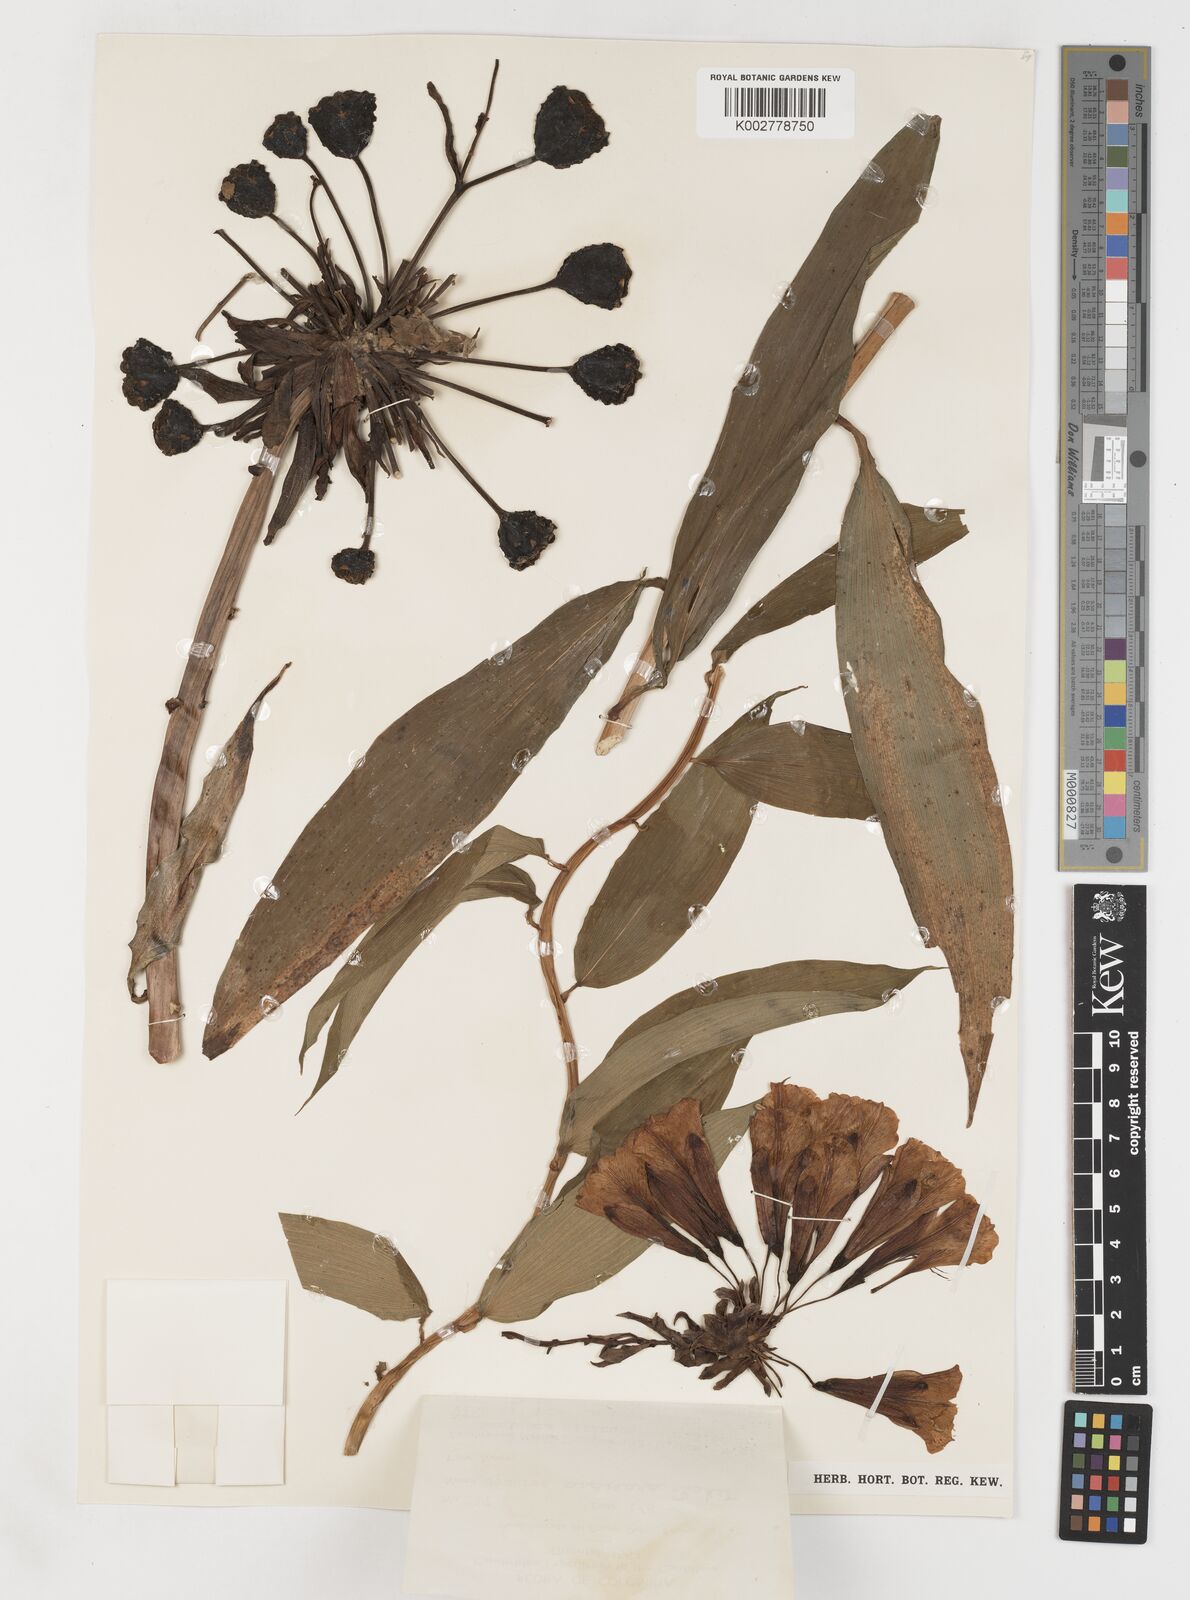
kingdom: Plantae
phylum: Tracheophyta
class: Liliopsida
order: Liliales
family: Alstroemeriaceae
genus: Bomarea
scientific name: Bomarea andreana
